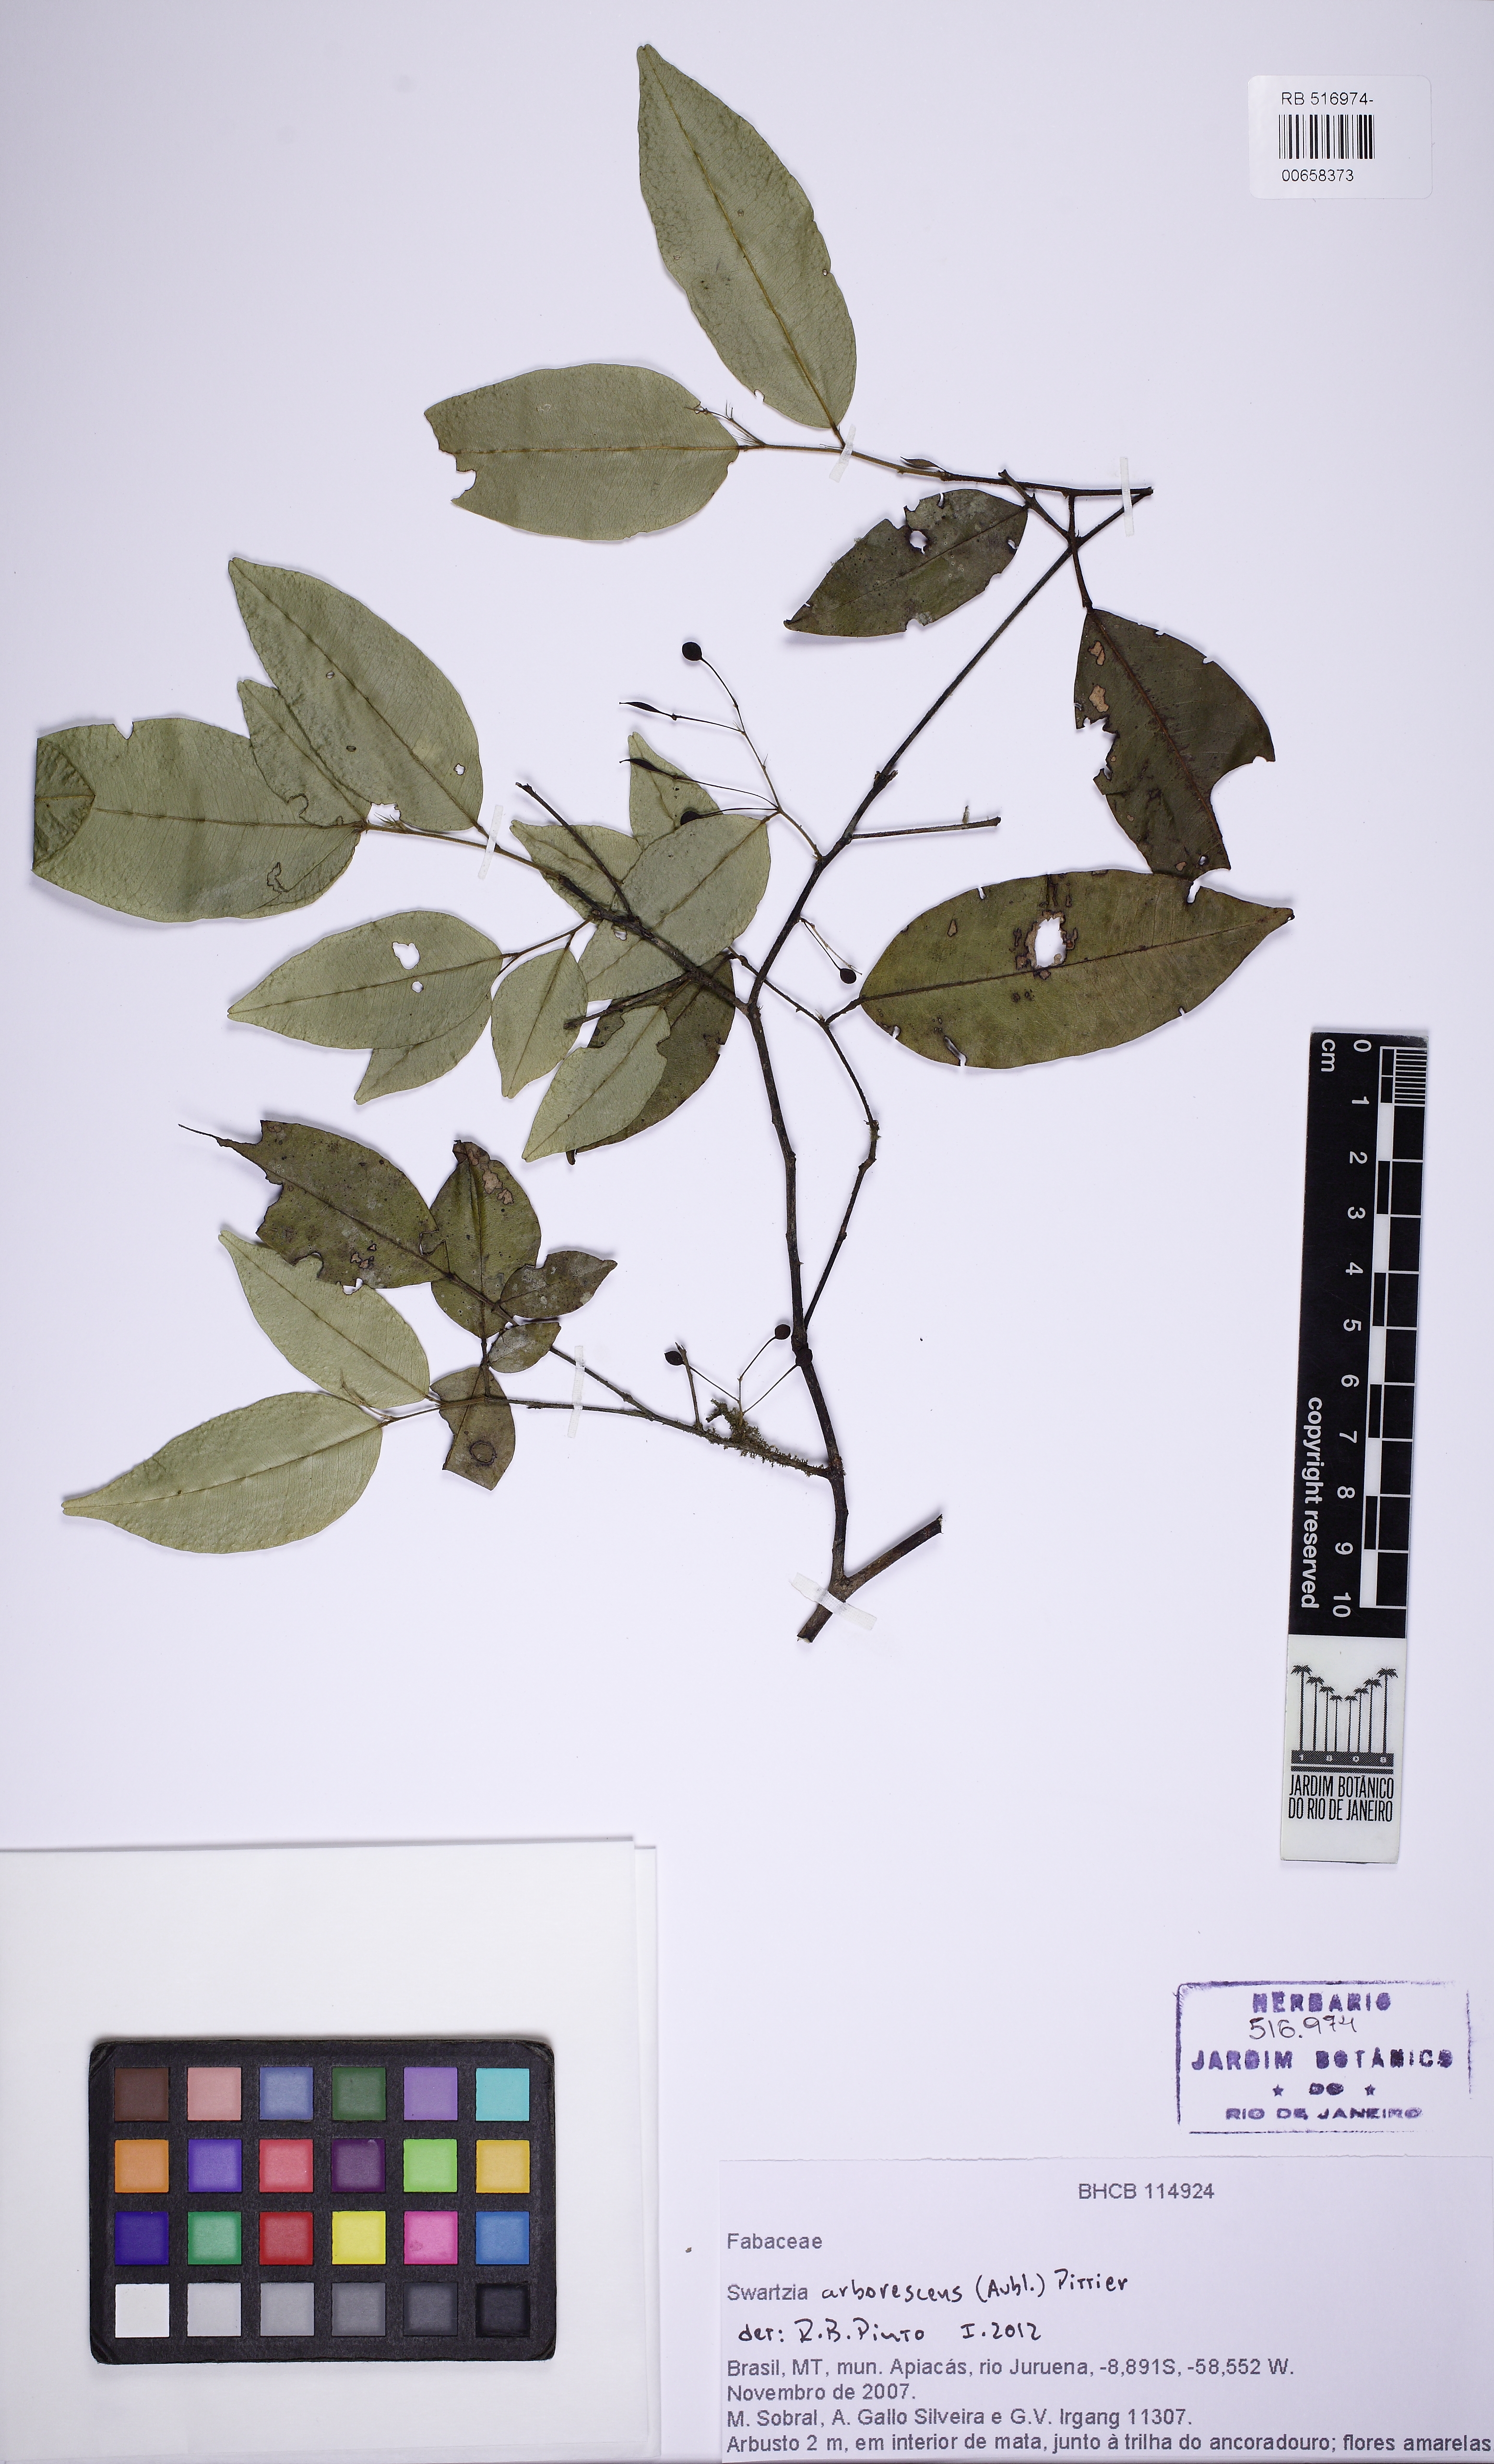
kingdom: Plantae
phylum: Tracheophyta
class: Magnoliopsida
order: Fabales
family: Fabaceae
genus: Swartzia
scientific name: Swartzia arborescens
